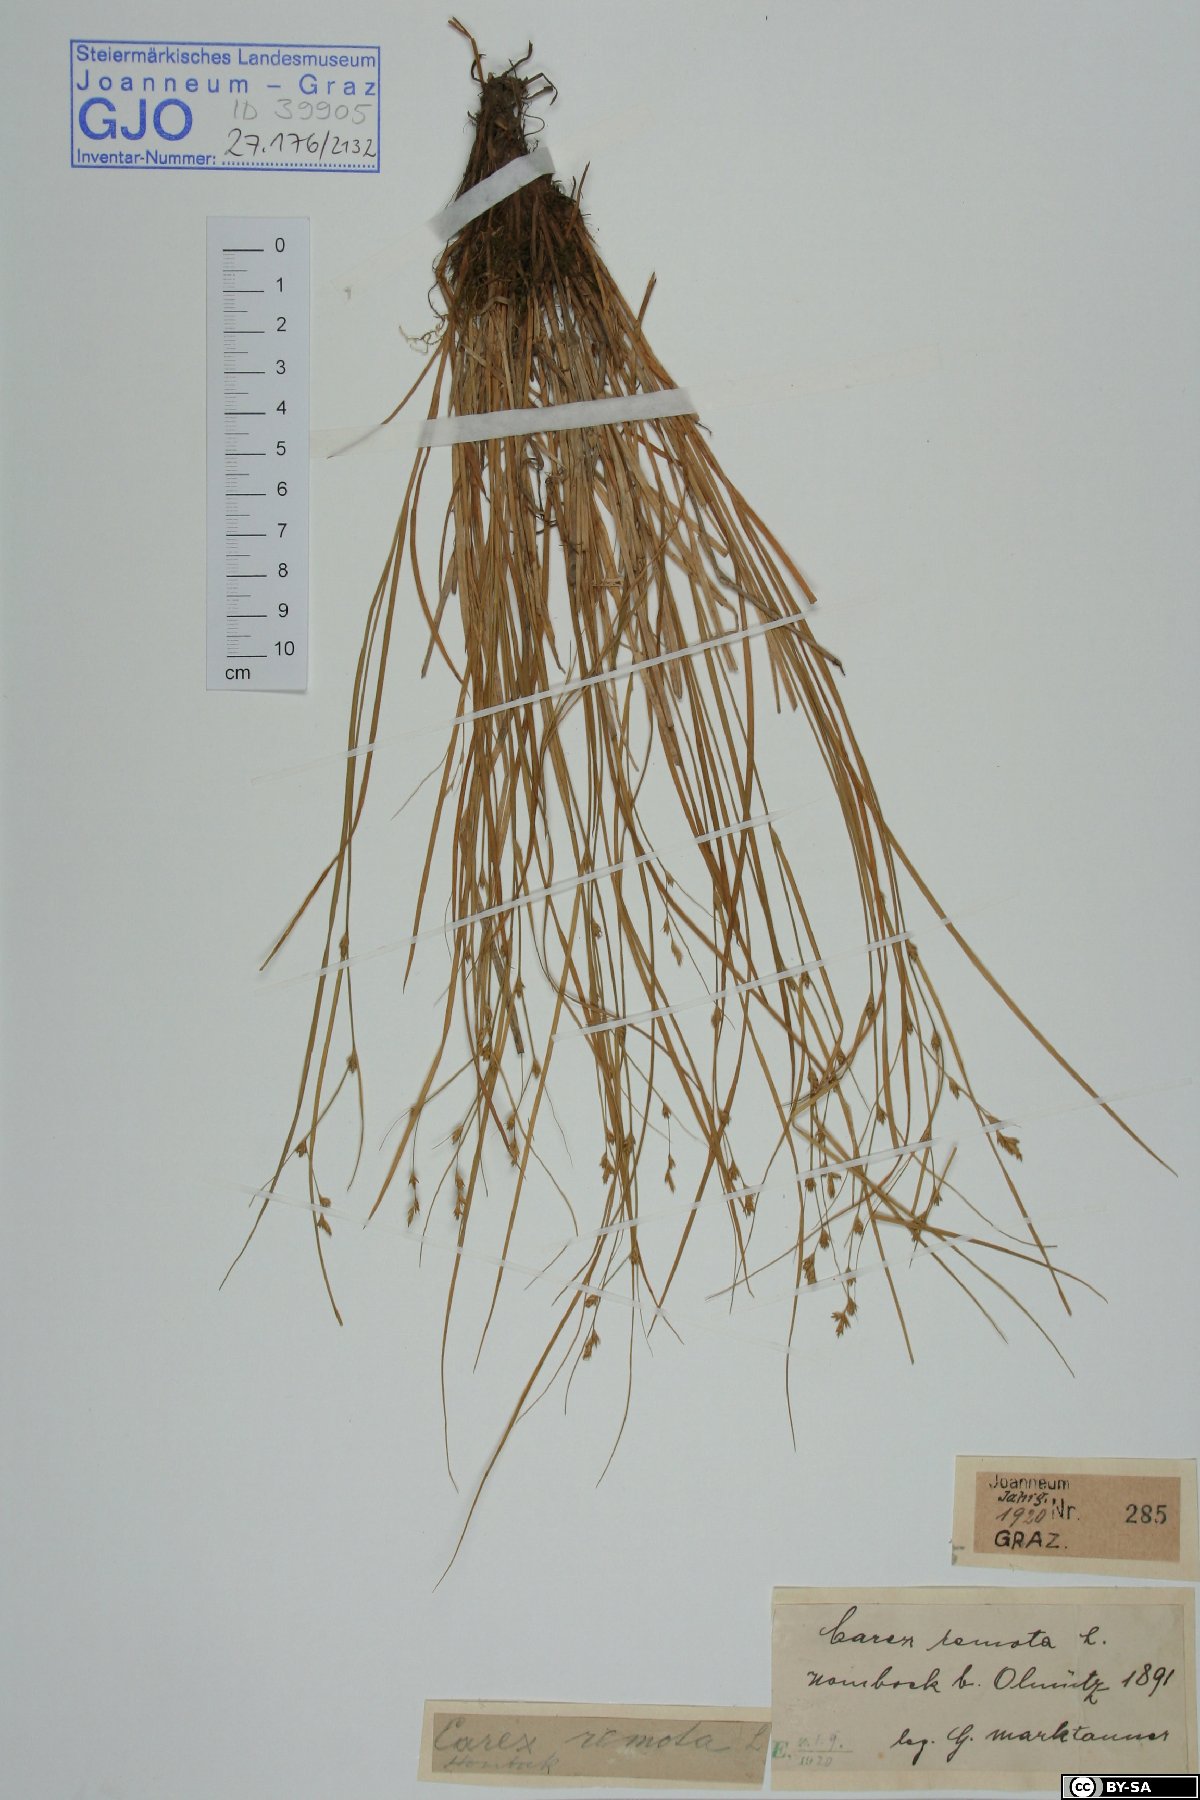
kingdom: Plantae
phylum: Tracheophyta
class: Liliopsida
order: Poales
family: Cyperaceae
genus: Carex
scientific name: Carex remota
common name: Remote sedge
